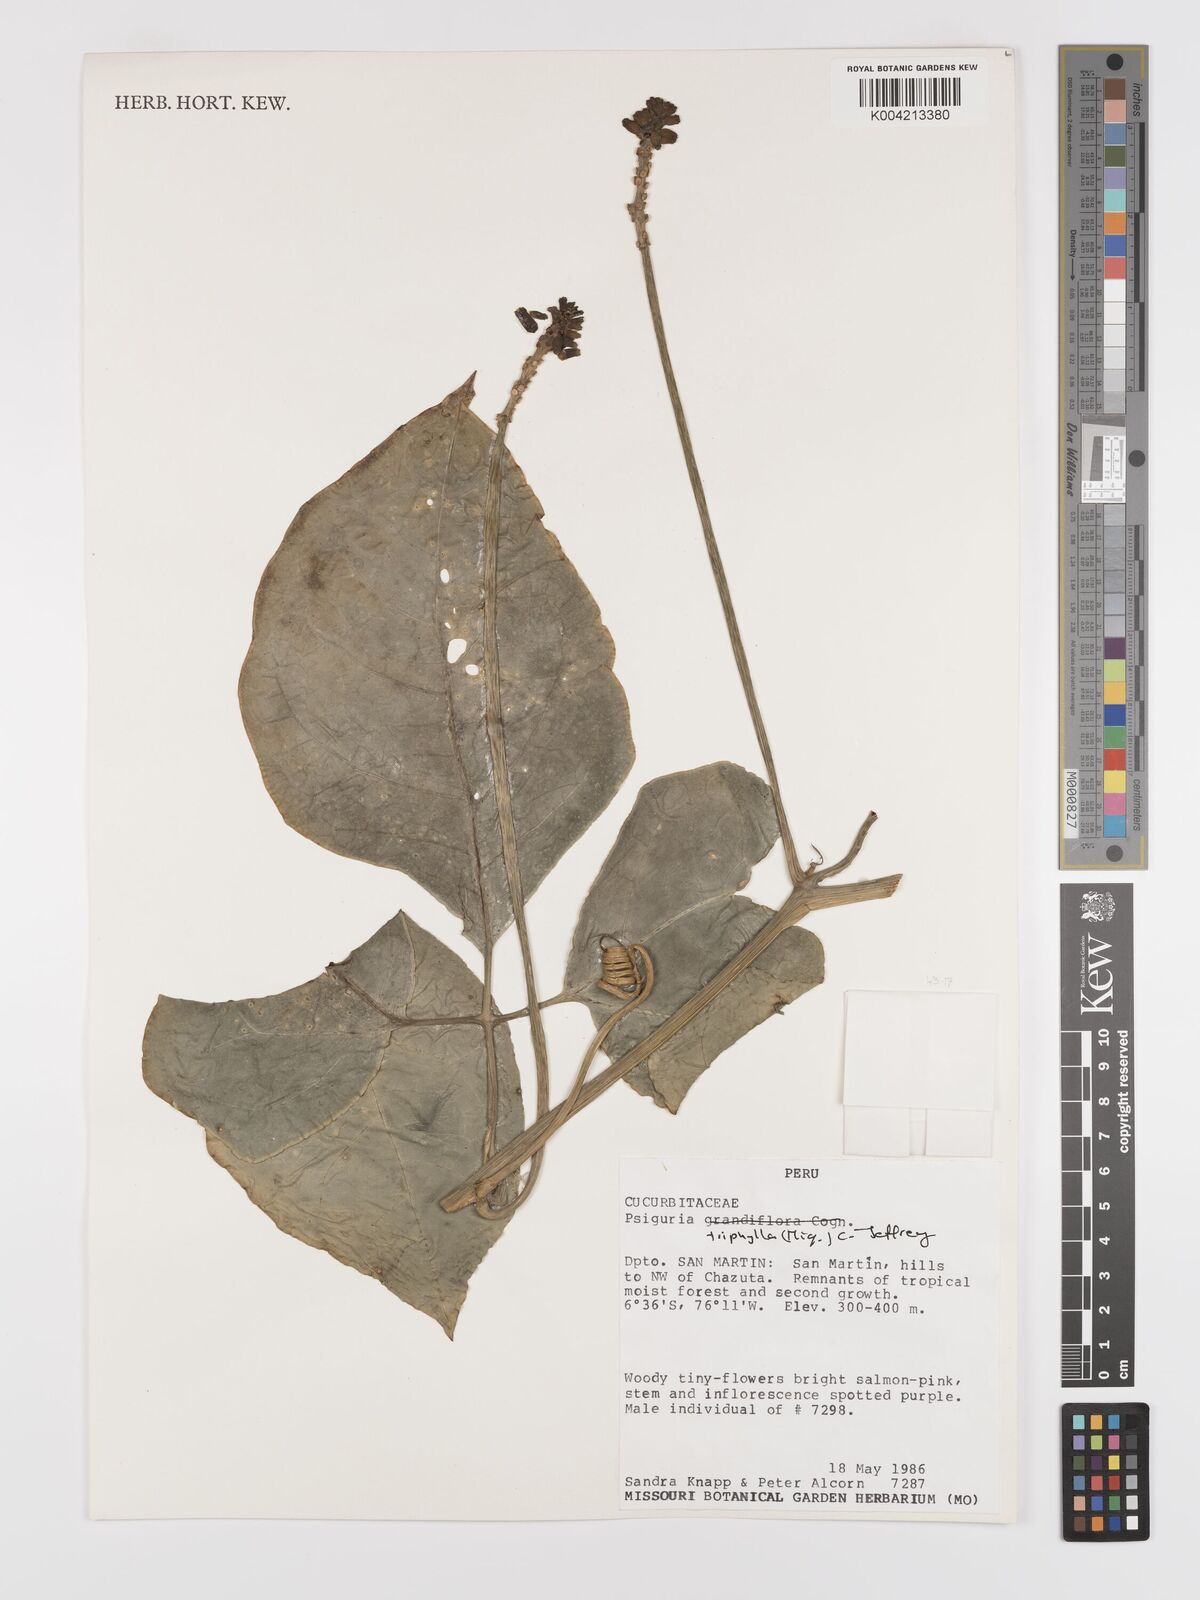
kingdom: Plantae
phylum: Tracheophyta
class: Magnoliopsida
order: Cucurbitales
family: Cucurbitaceae
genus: Psiguria
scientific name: Psiguria ternata
